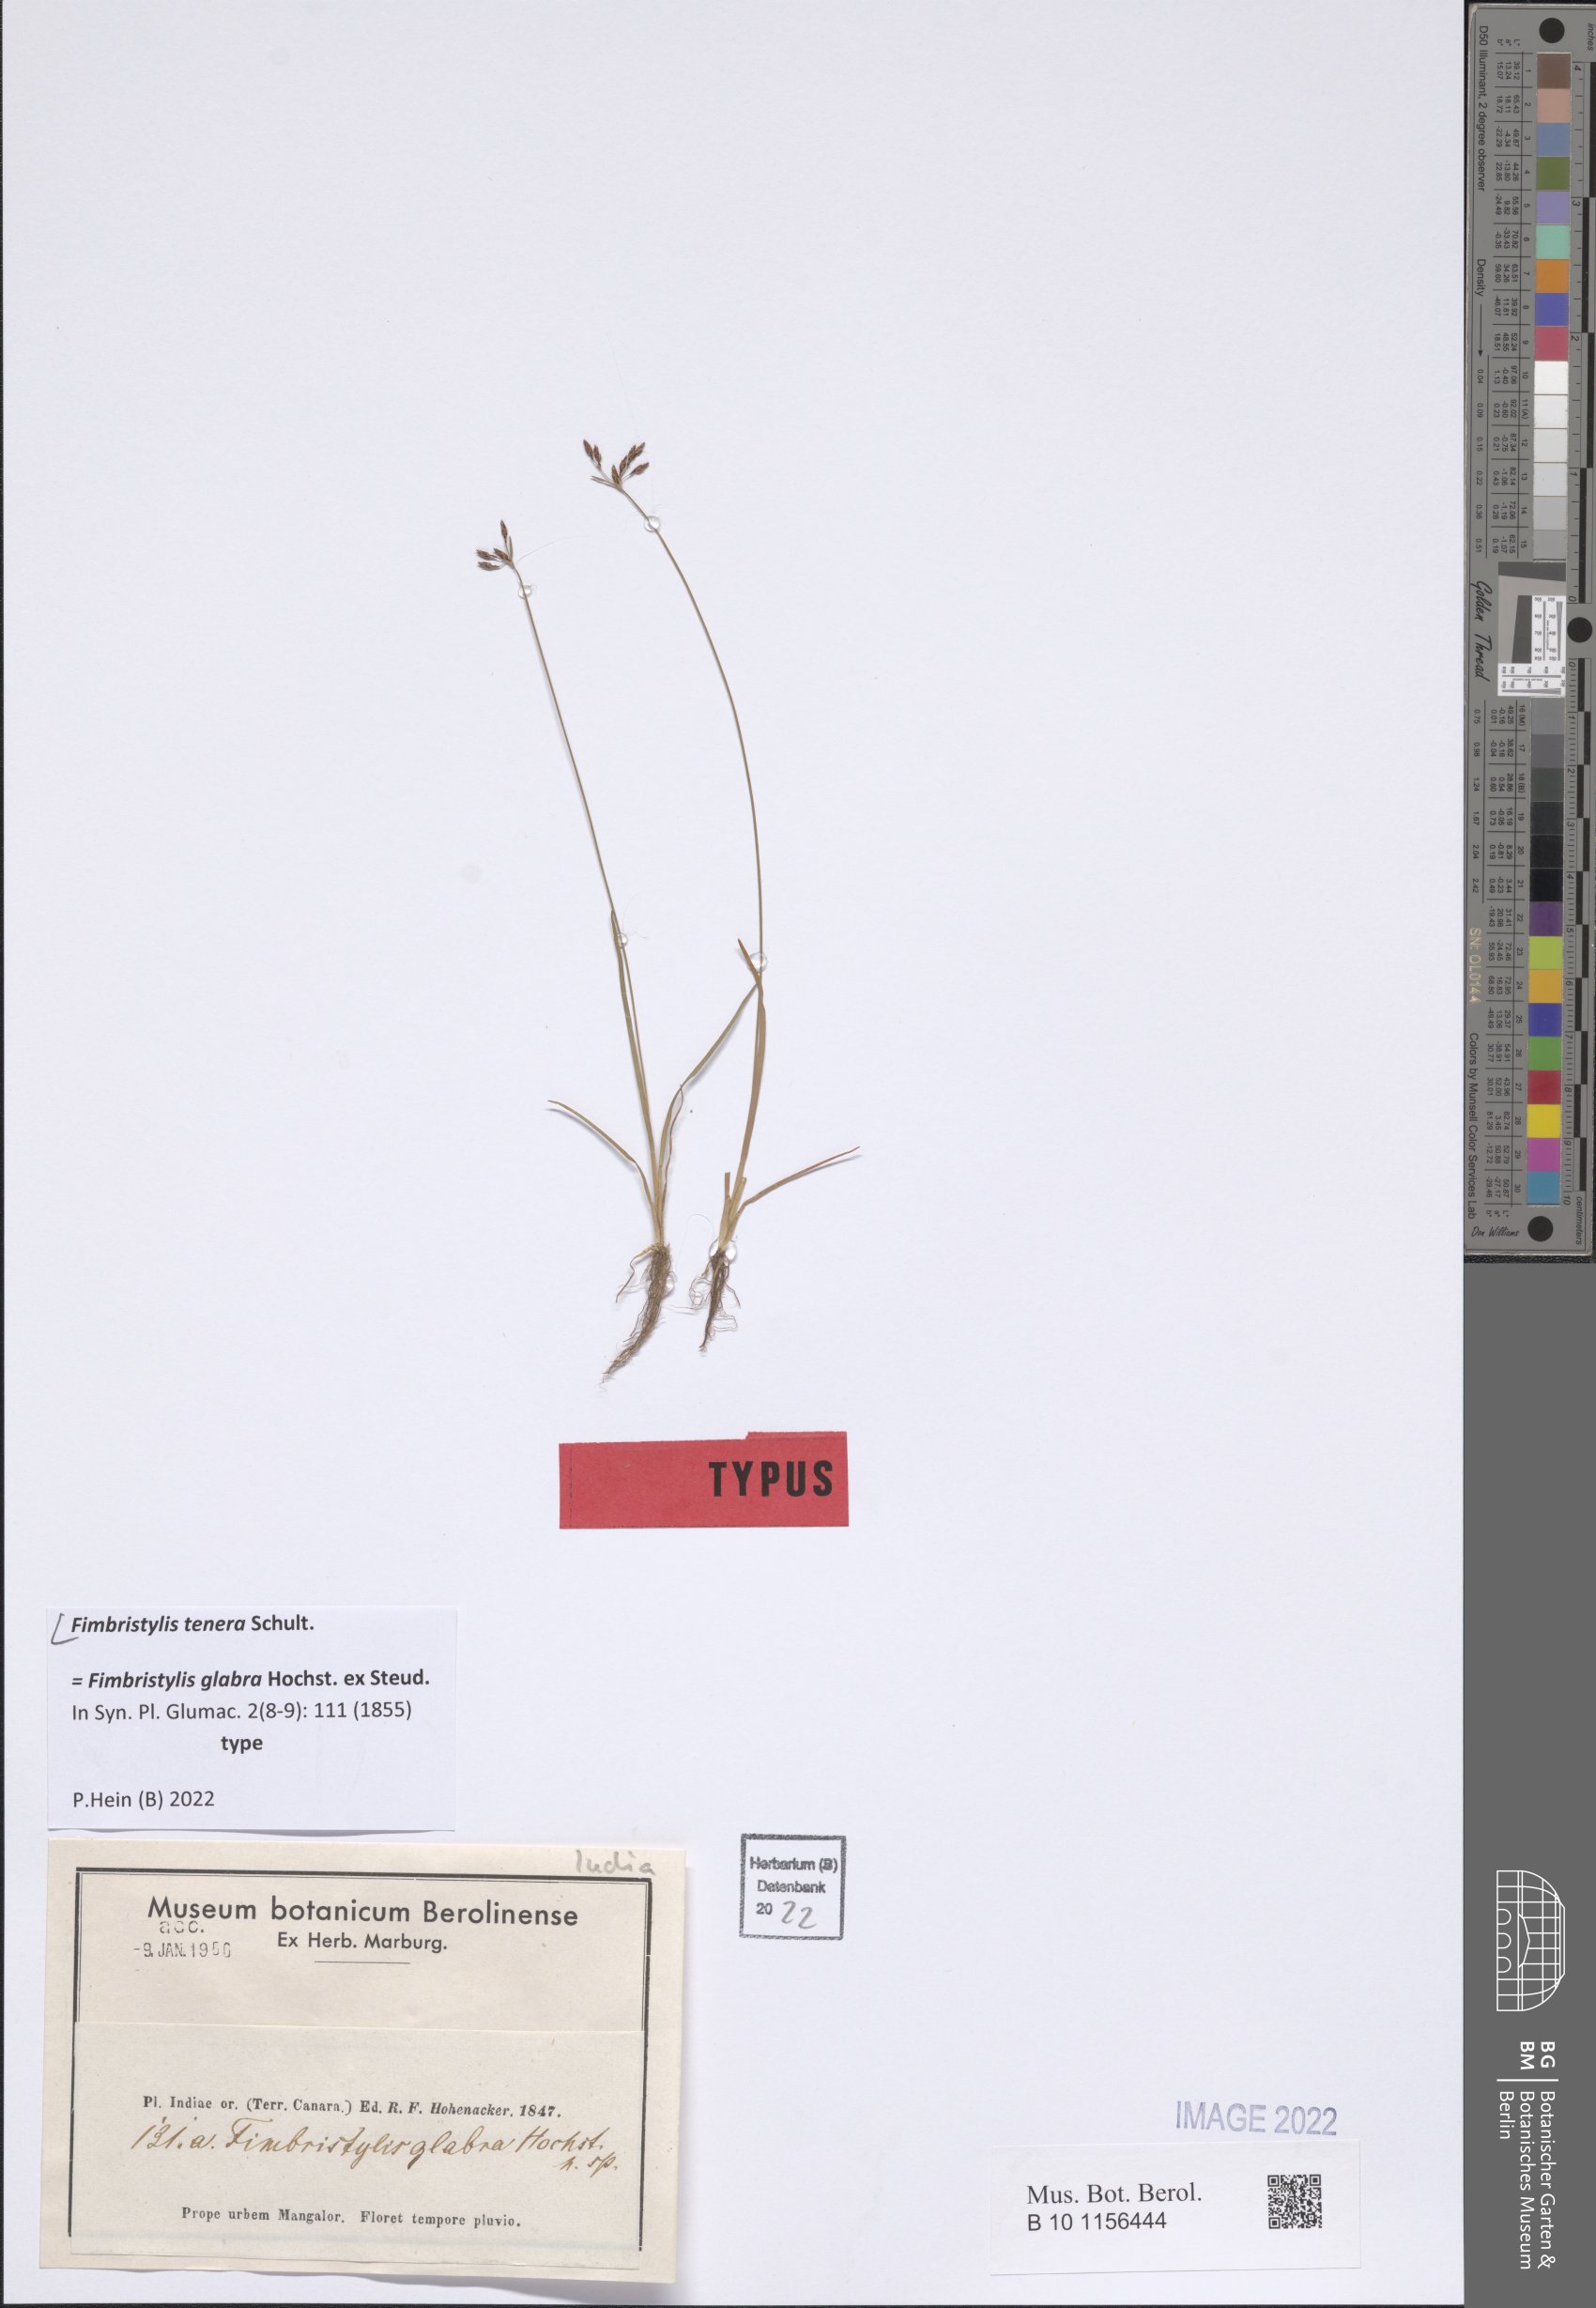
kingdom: Plantae
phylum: Tracheophyta
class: Liliopsida
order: Poales
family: Cyperaceae
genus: Fimbristylis
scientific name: Fimbristylis tenera
